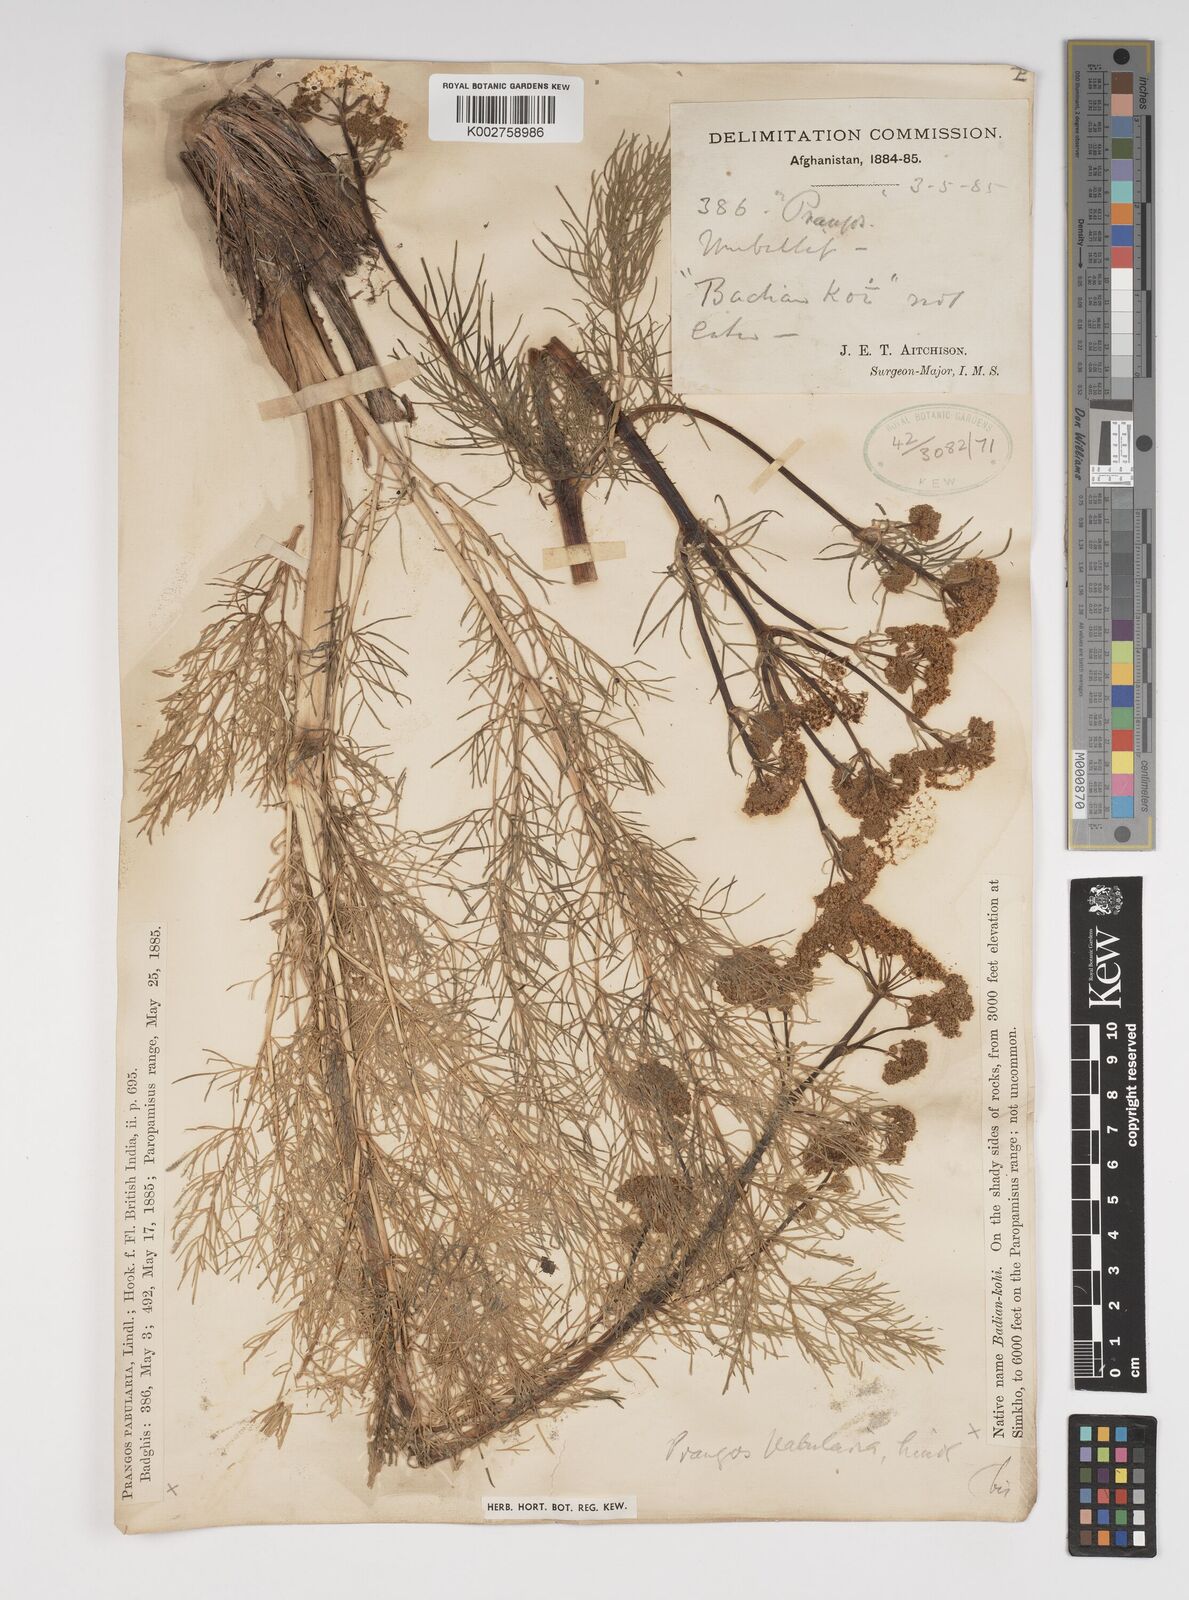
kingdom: Plantae
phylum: Tracheophyta
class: Magnoliopsida
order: Apiales
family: Apiaceae
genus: Prangos
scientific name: Prangos pabularia
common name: Yugan
